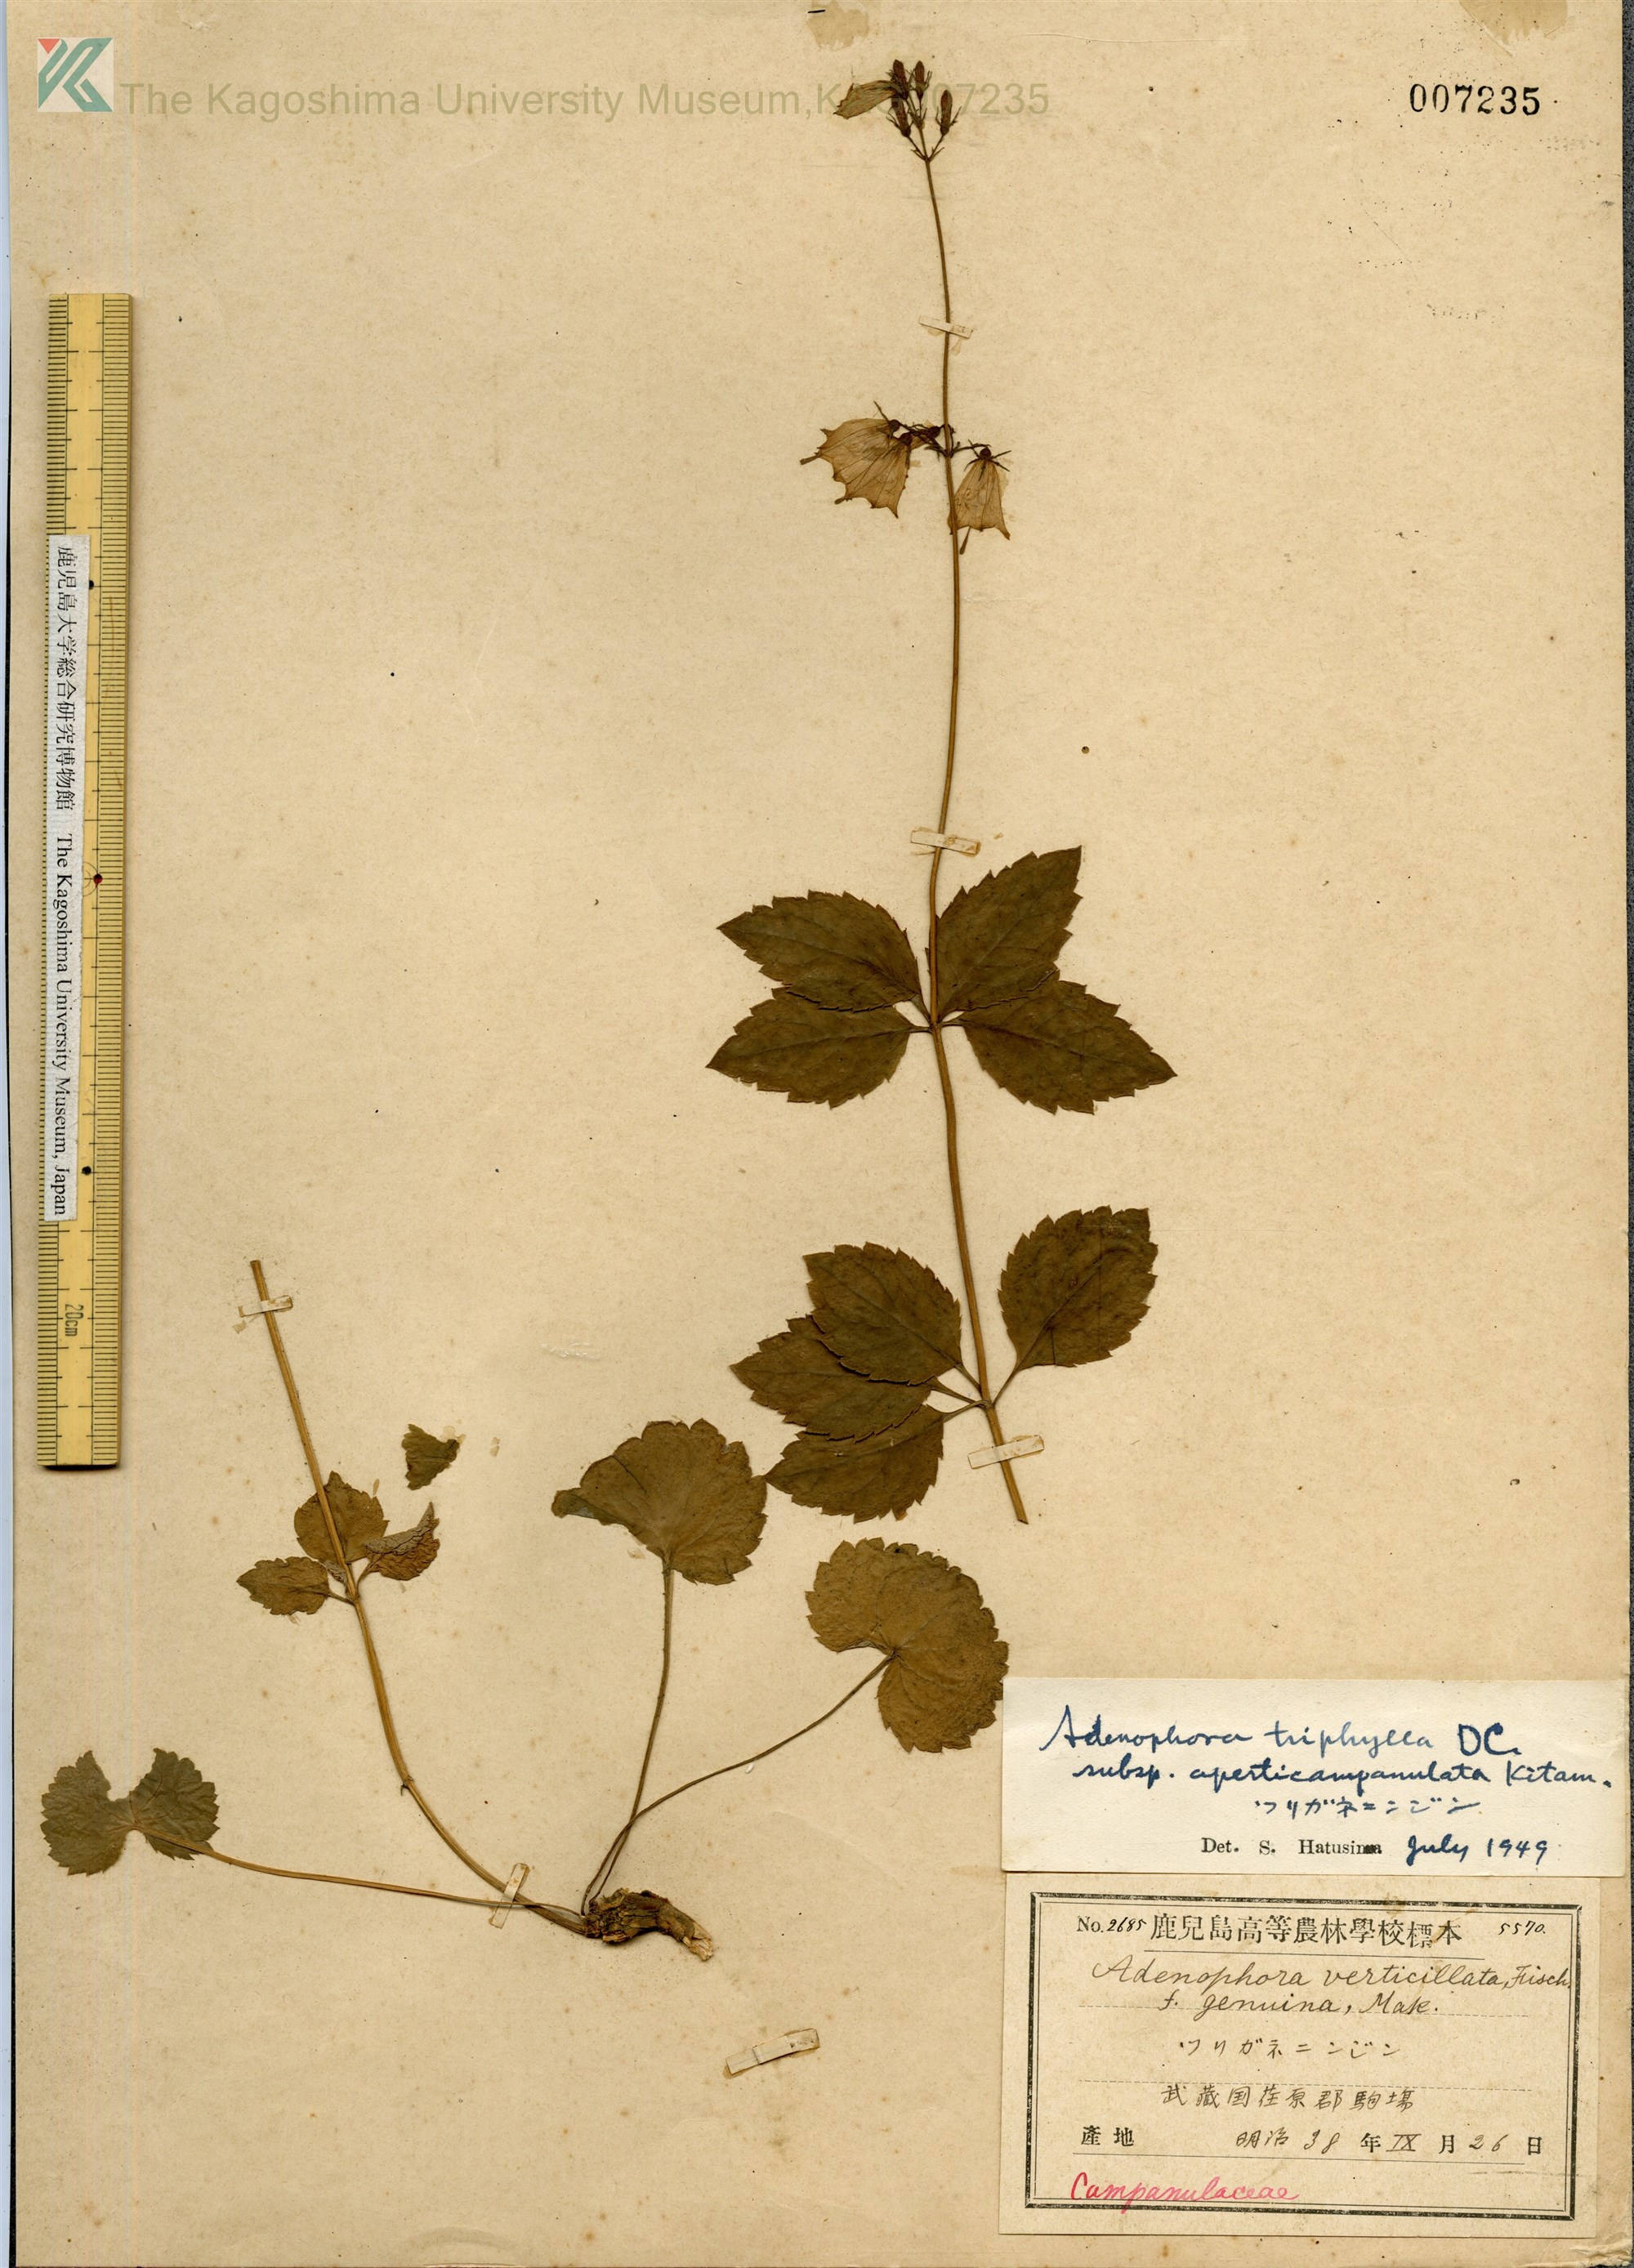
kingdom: Plantae
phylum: Tracheophyta
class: Magnoliopsida
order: Asterales
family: Campanulaceae
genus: Adenophora
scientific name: Adenophora triphylla
